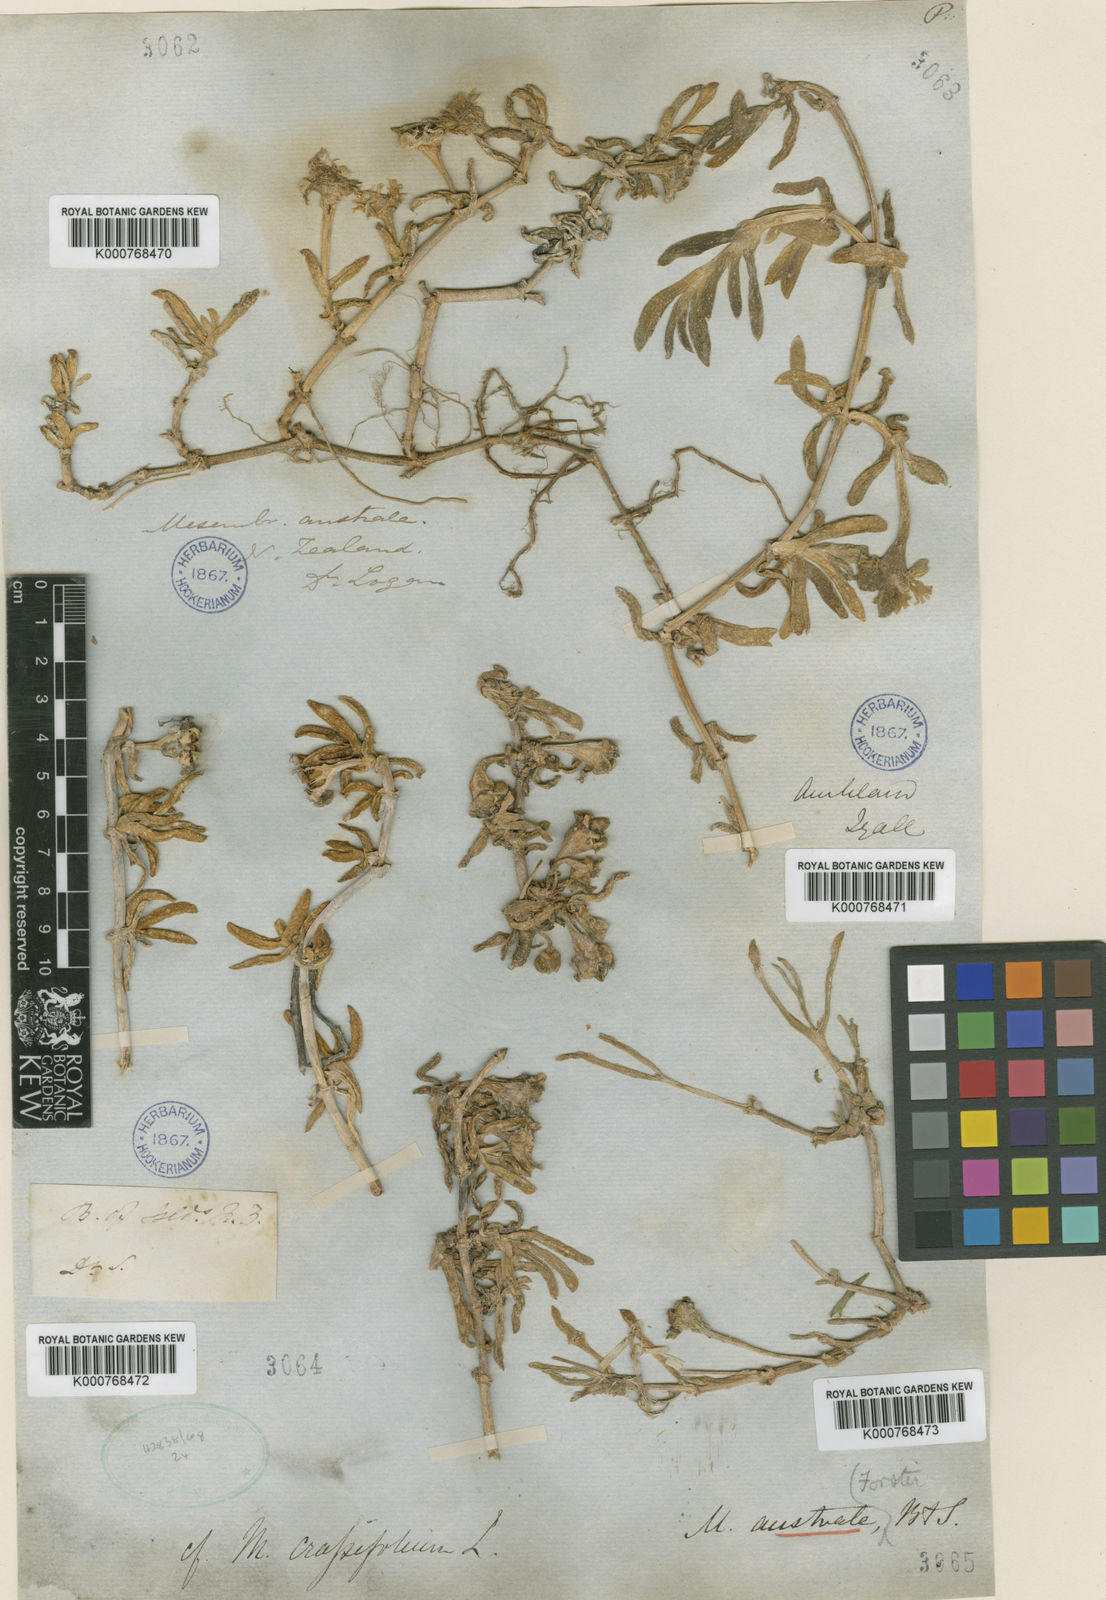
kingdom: Plantae
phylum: Tracheophyta
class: Magnoliopsida
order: Caryophyllales
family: Aizoaceae
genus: Disphyma
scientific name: Disphyma australe
